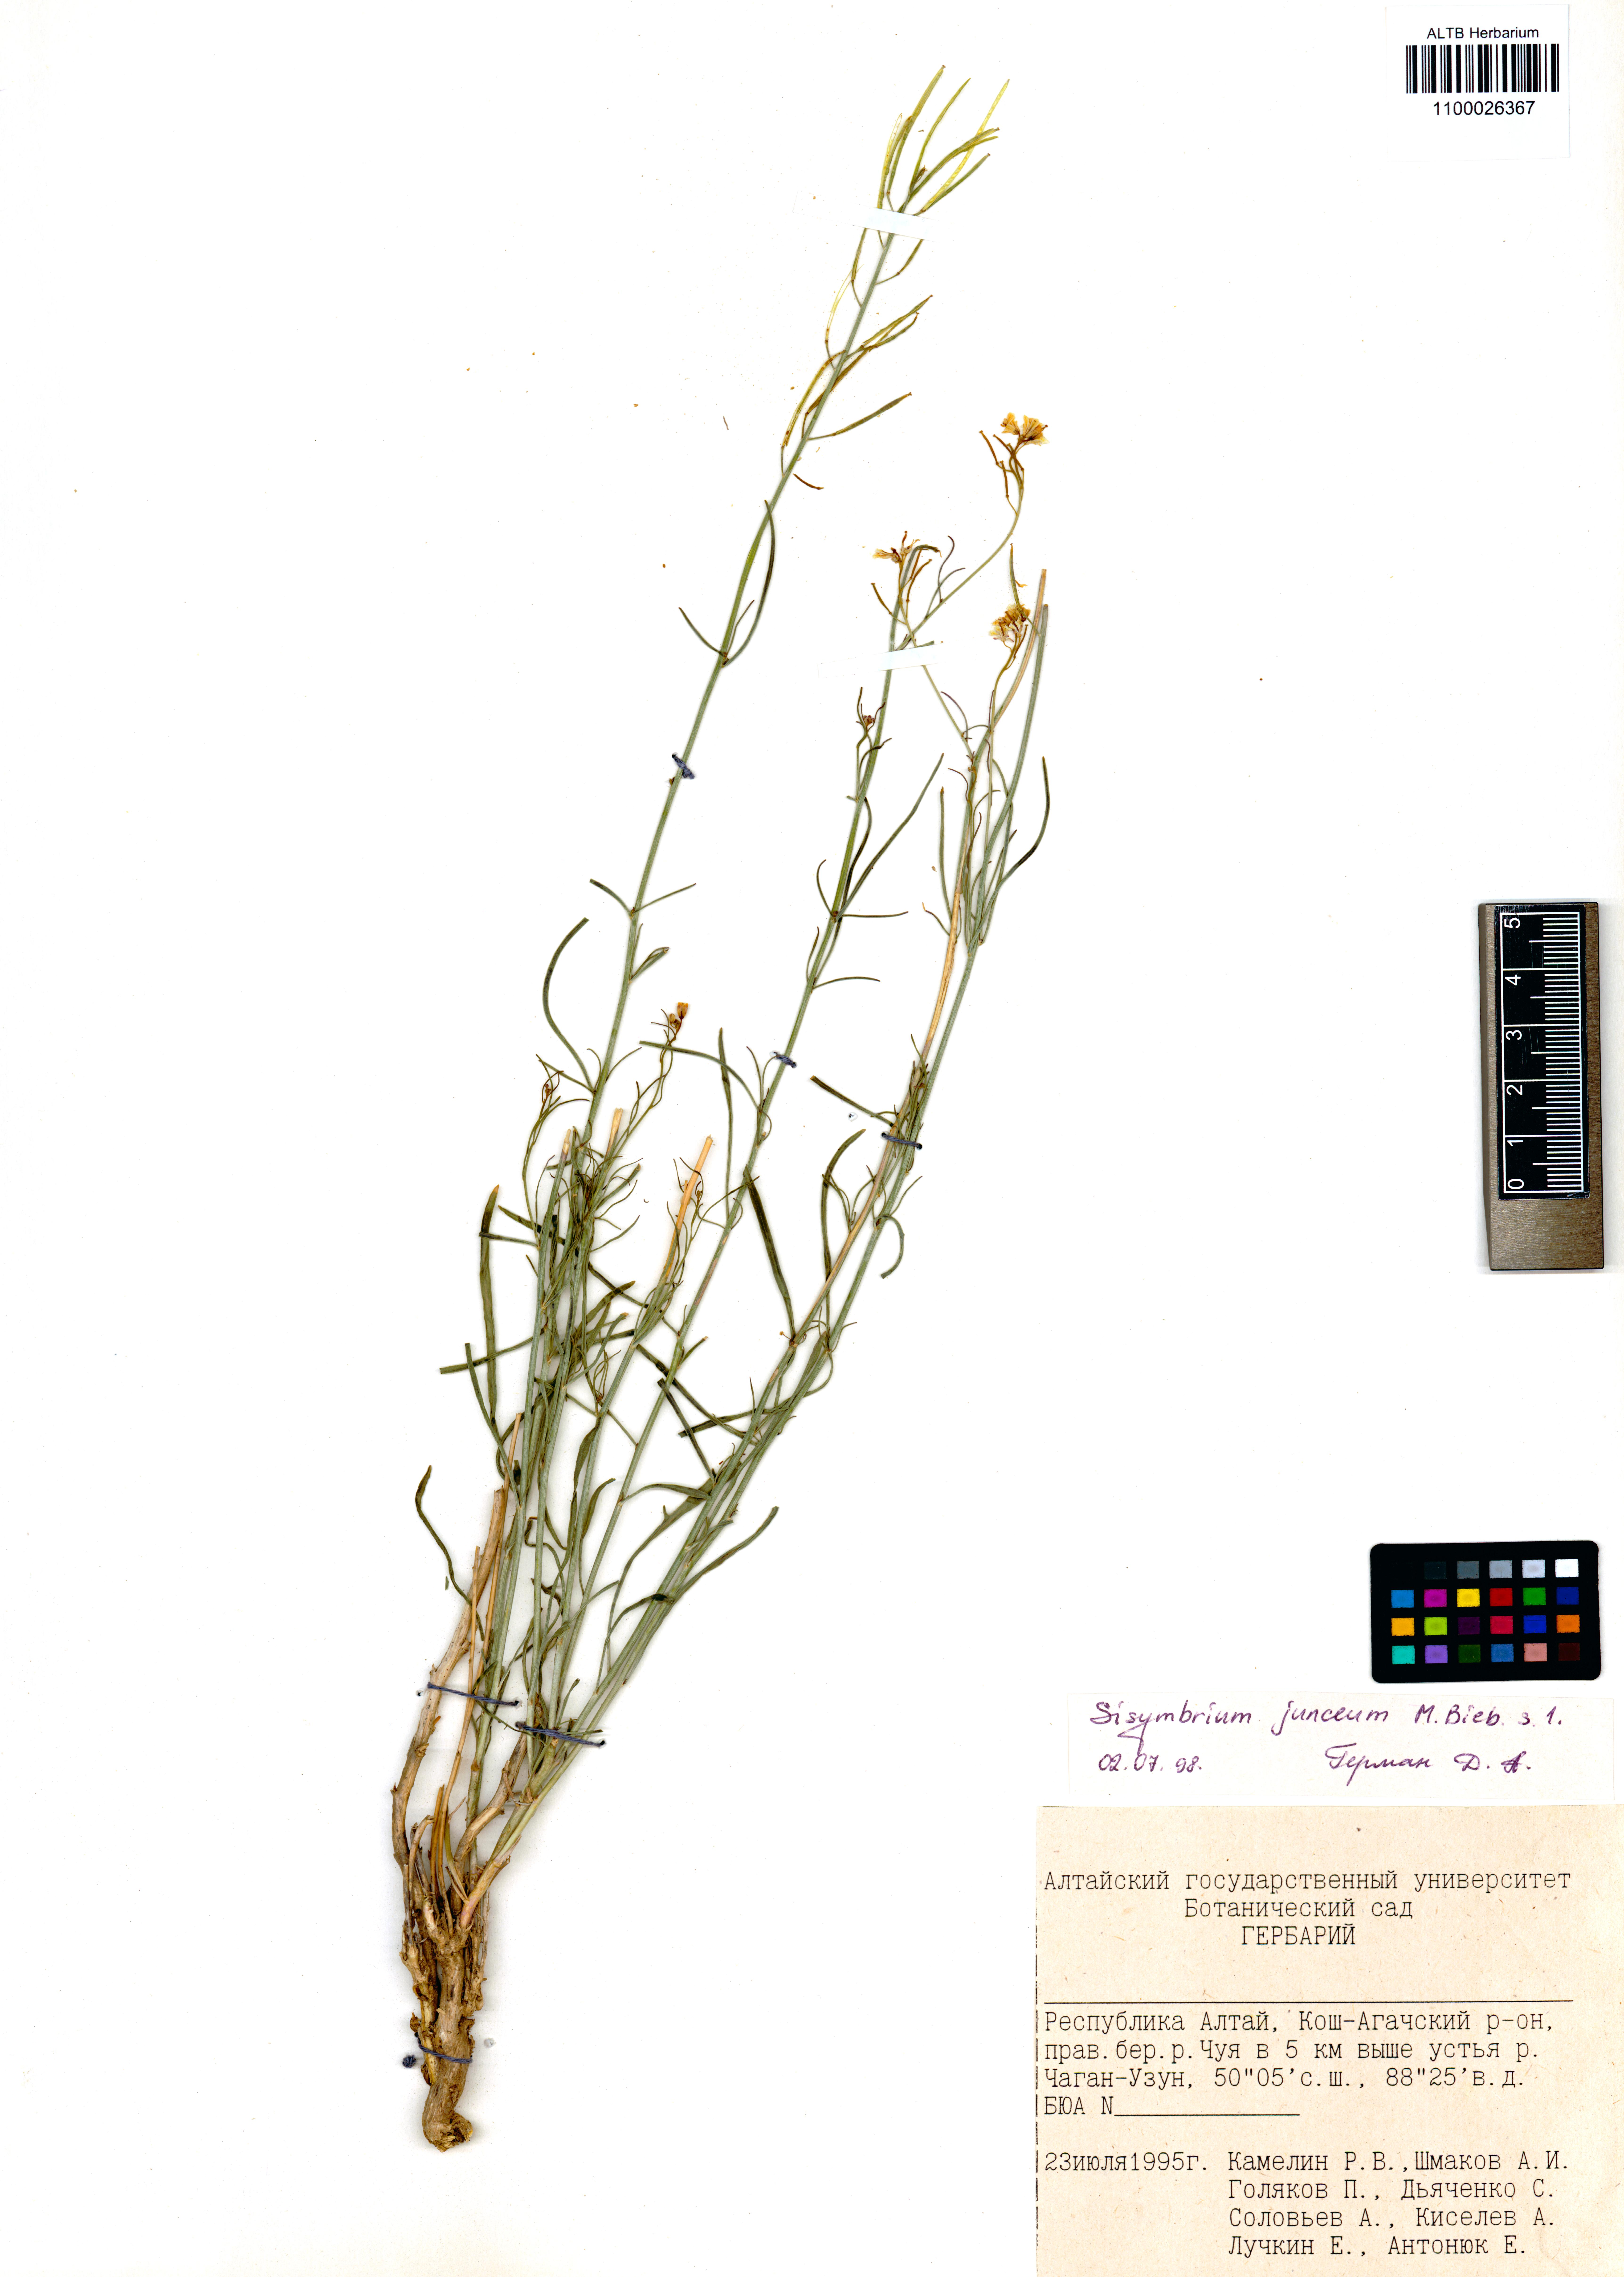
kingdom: Plantae
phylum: Tracheophyta
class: Magnoliopsida
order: Brassicales
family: Brassicaceae
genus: Sisymbrium
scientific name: Sisymbrium polymorphum
